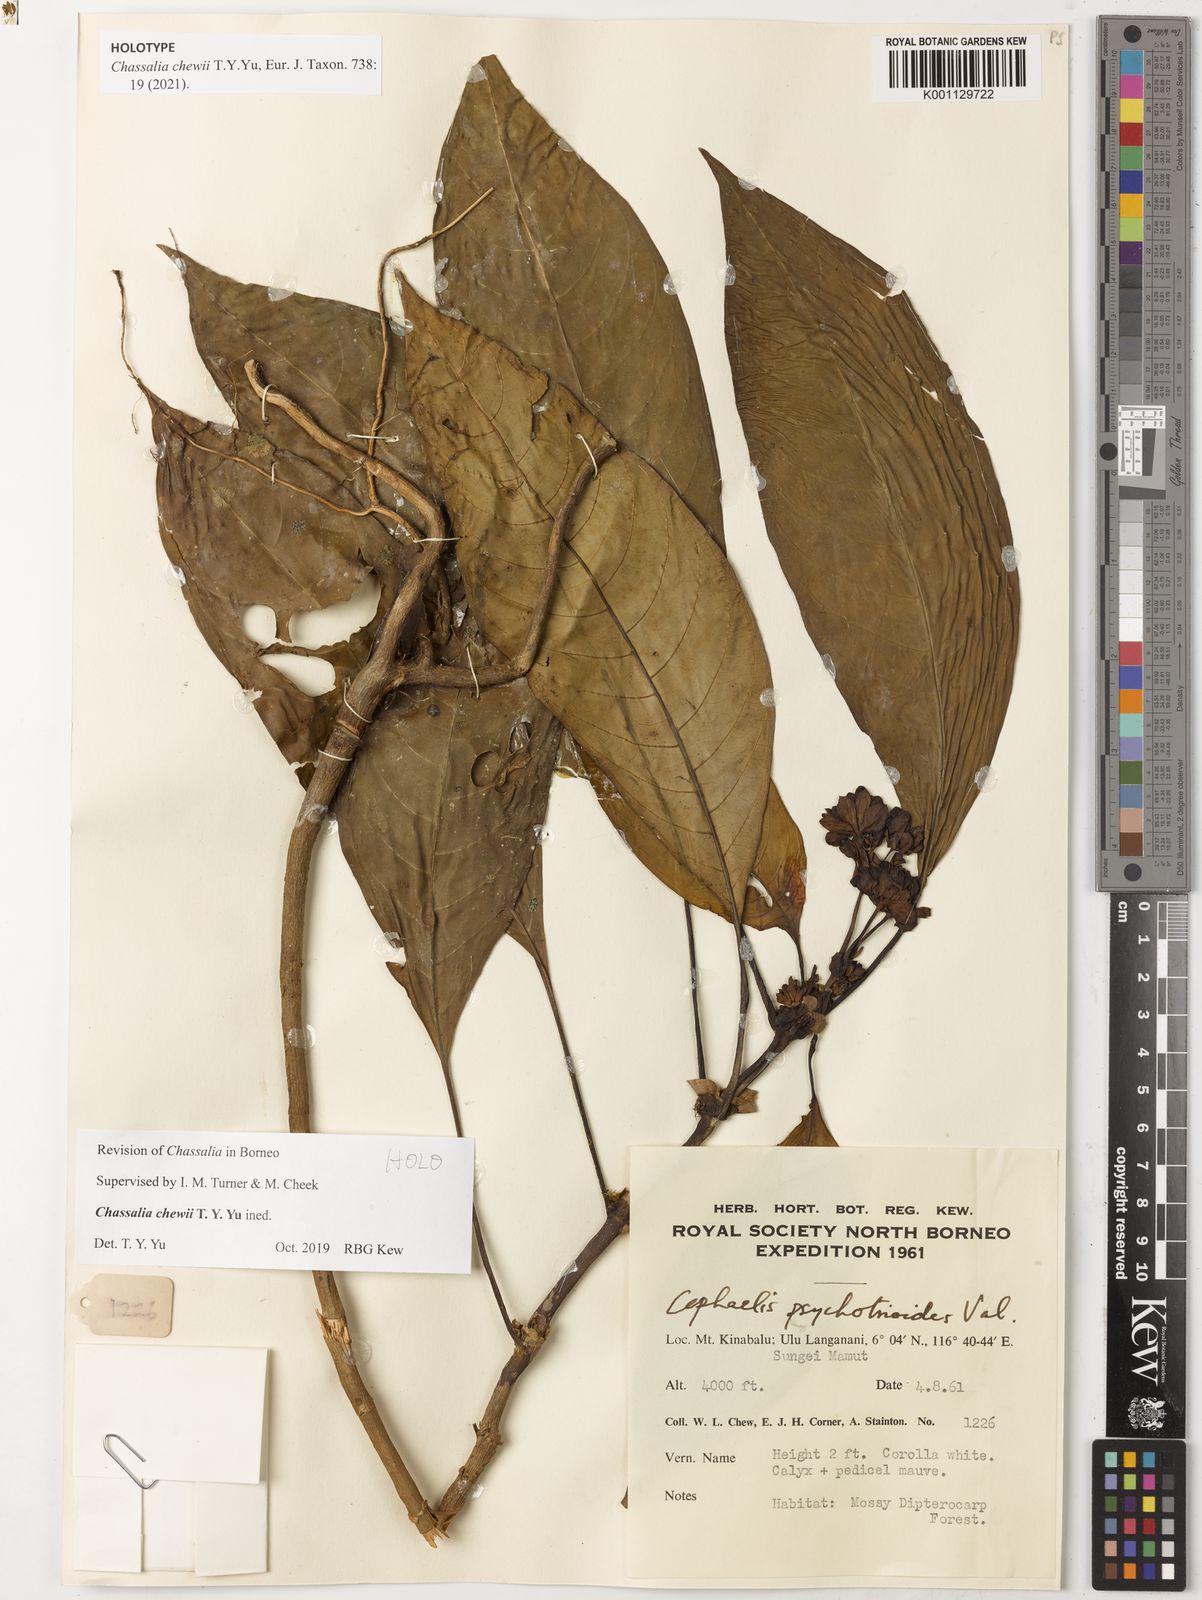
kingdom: Plantae
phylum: Tracheophyta
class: Magnoliopsida
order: Gentianales
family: Rubiaceae
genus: Chassalia
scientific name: Chassalia
